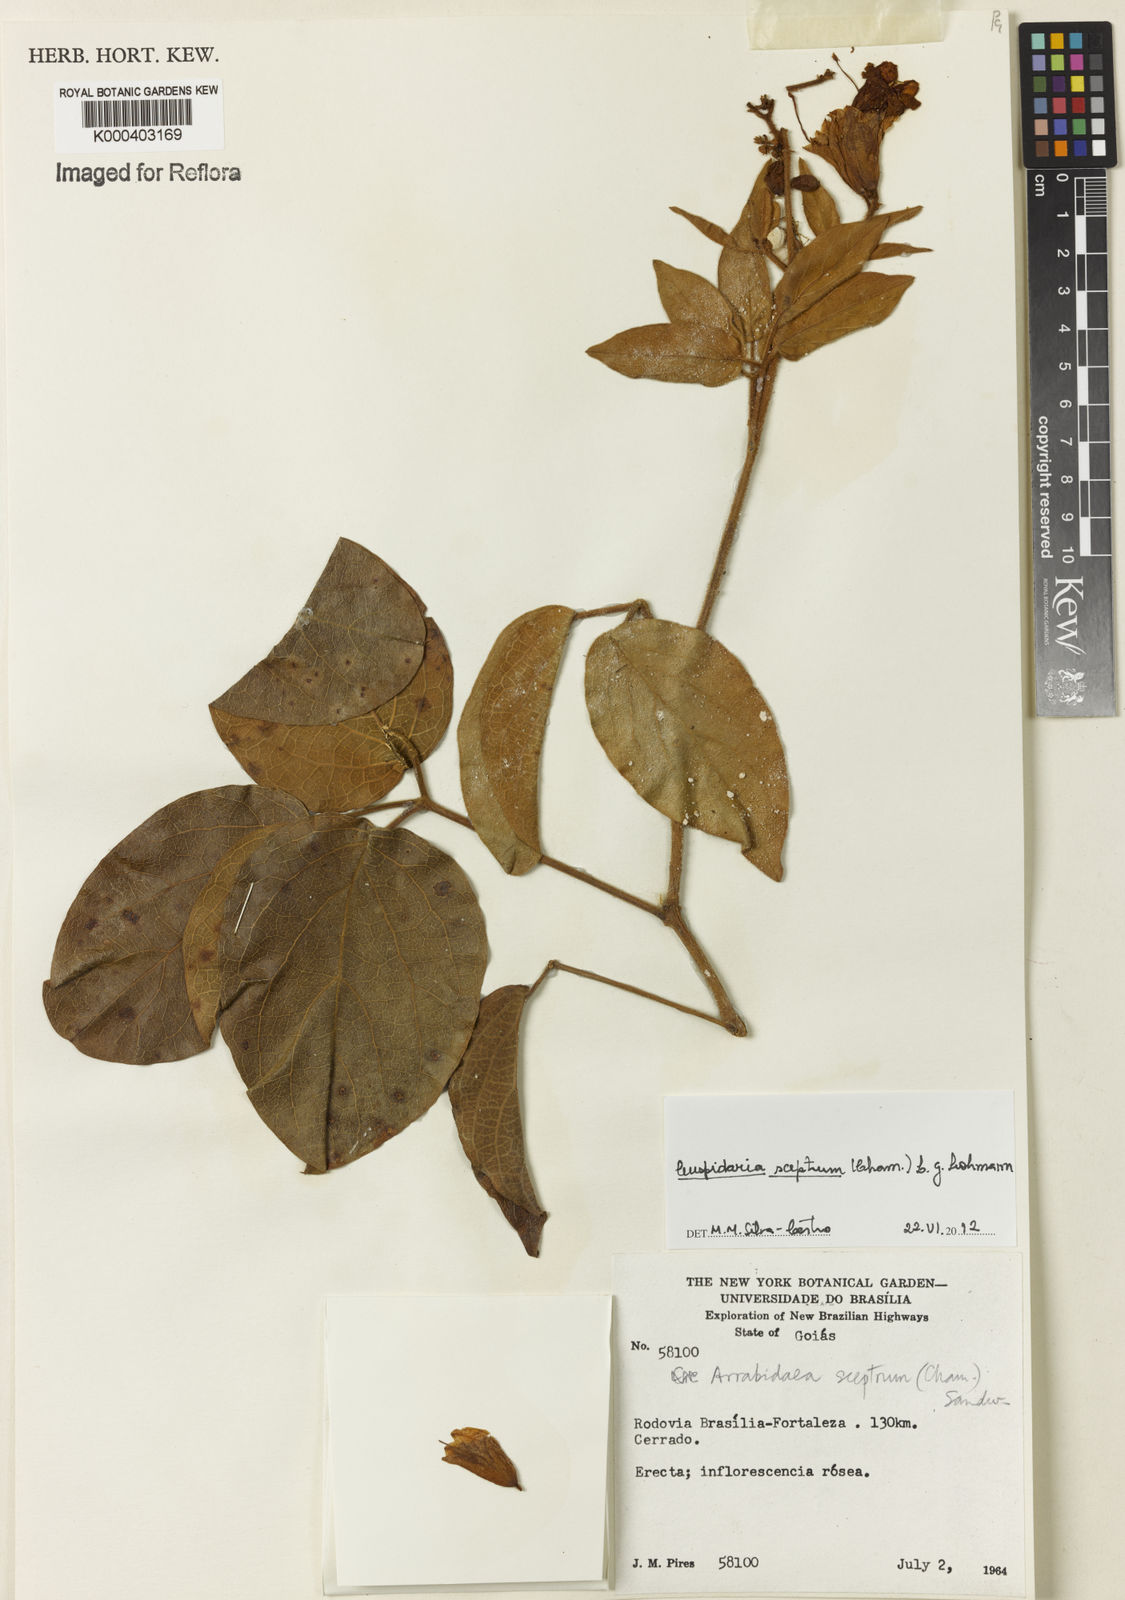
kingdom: Plantae
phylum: Tracheophyta
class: Magnoliopsida
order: Lamiales
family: Bignoniaceae
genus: Cuspidaria
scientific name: Cuspidaria sceptrum
